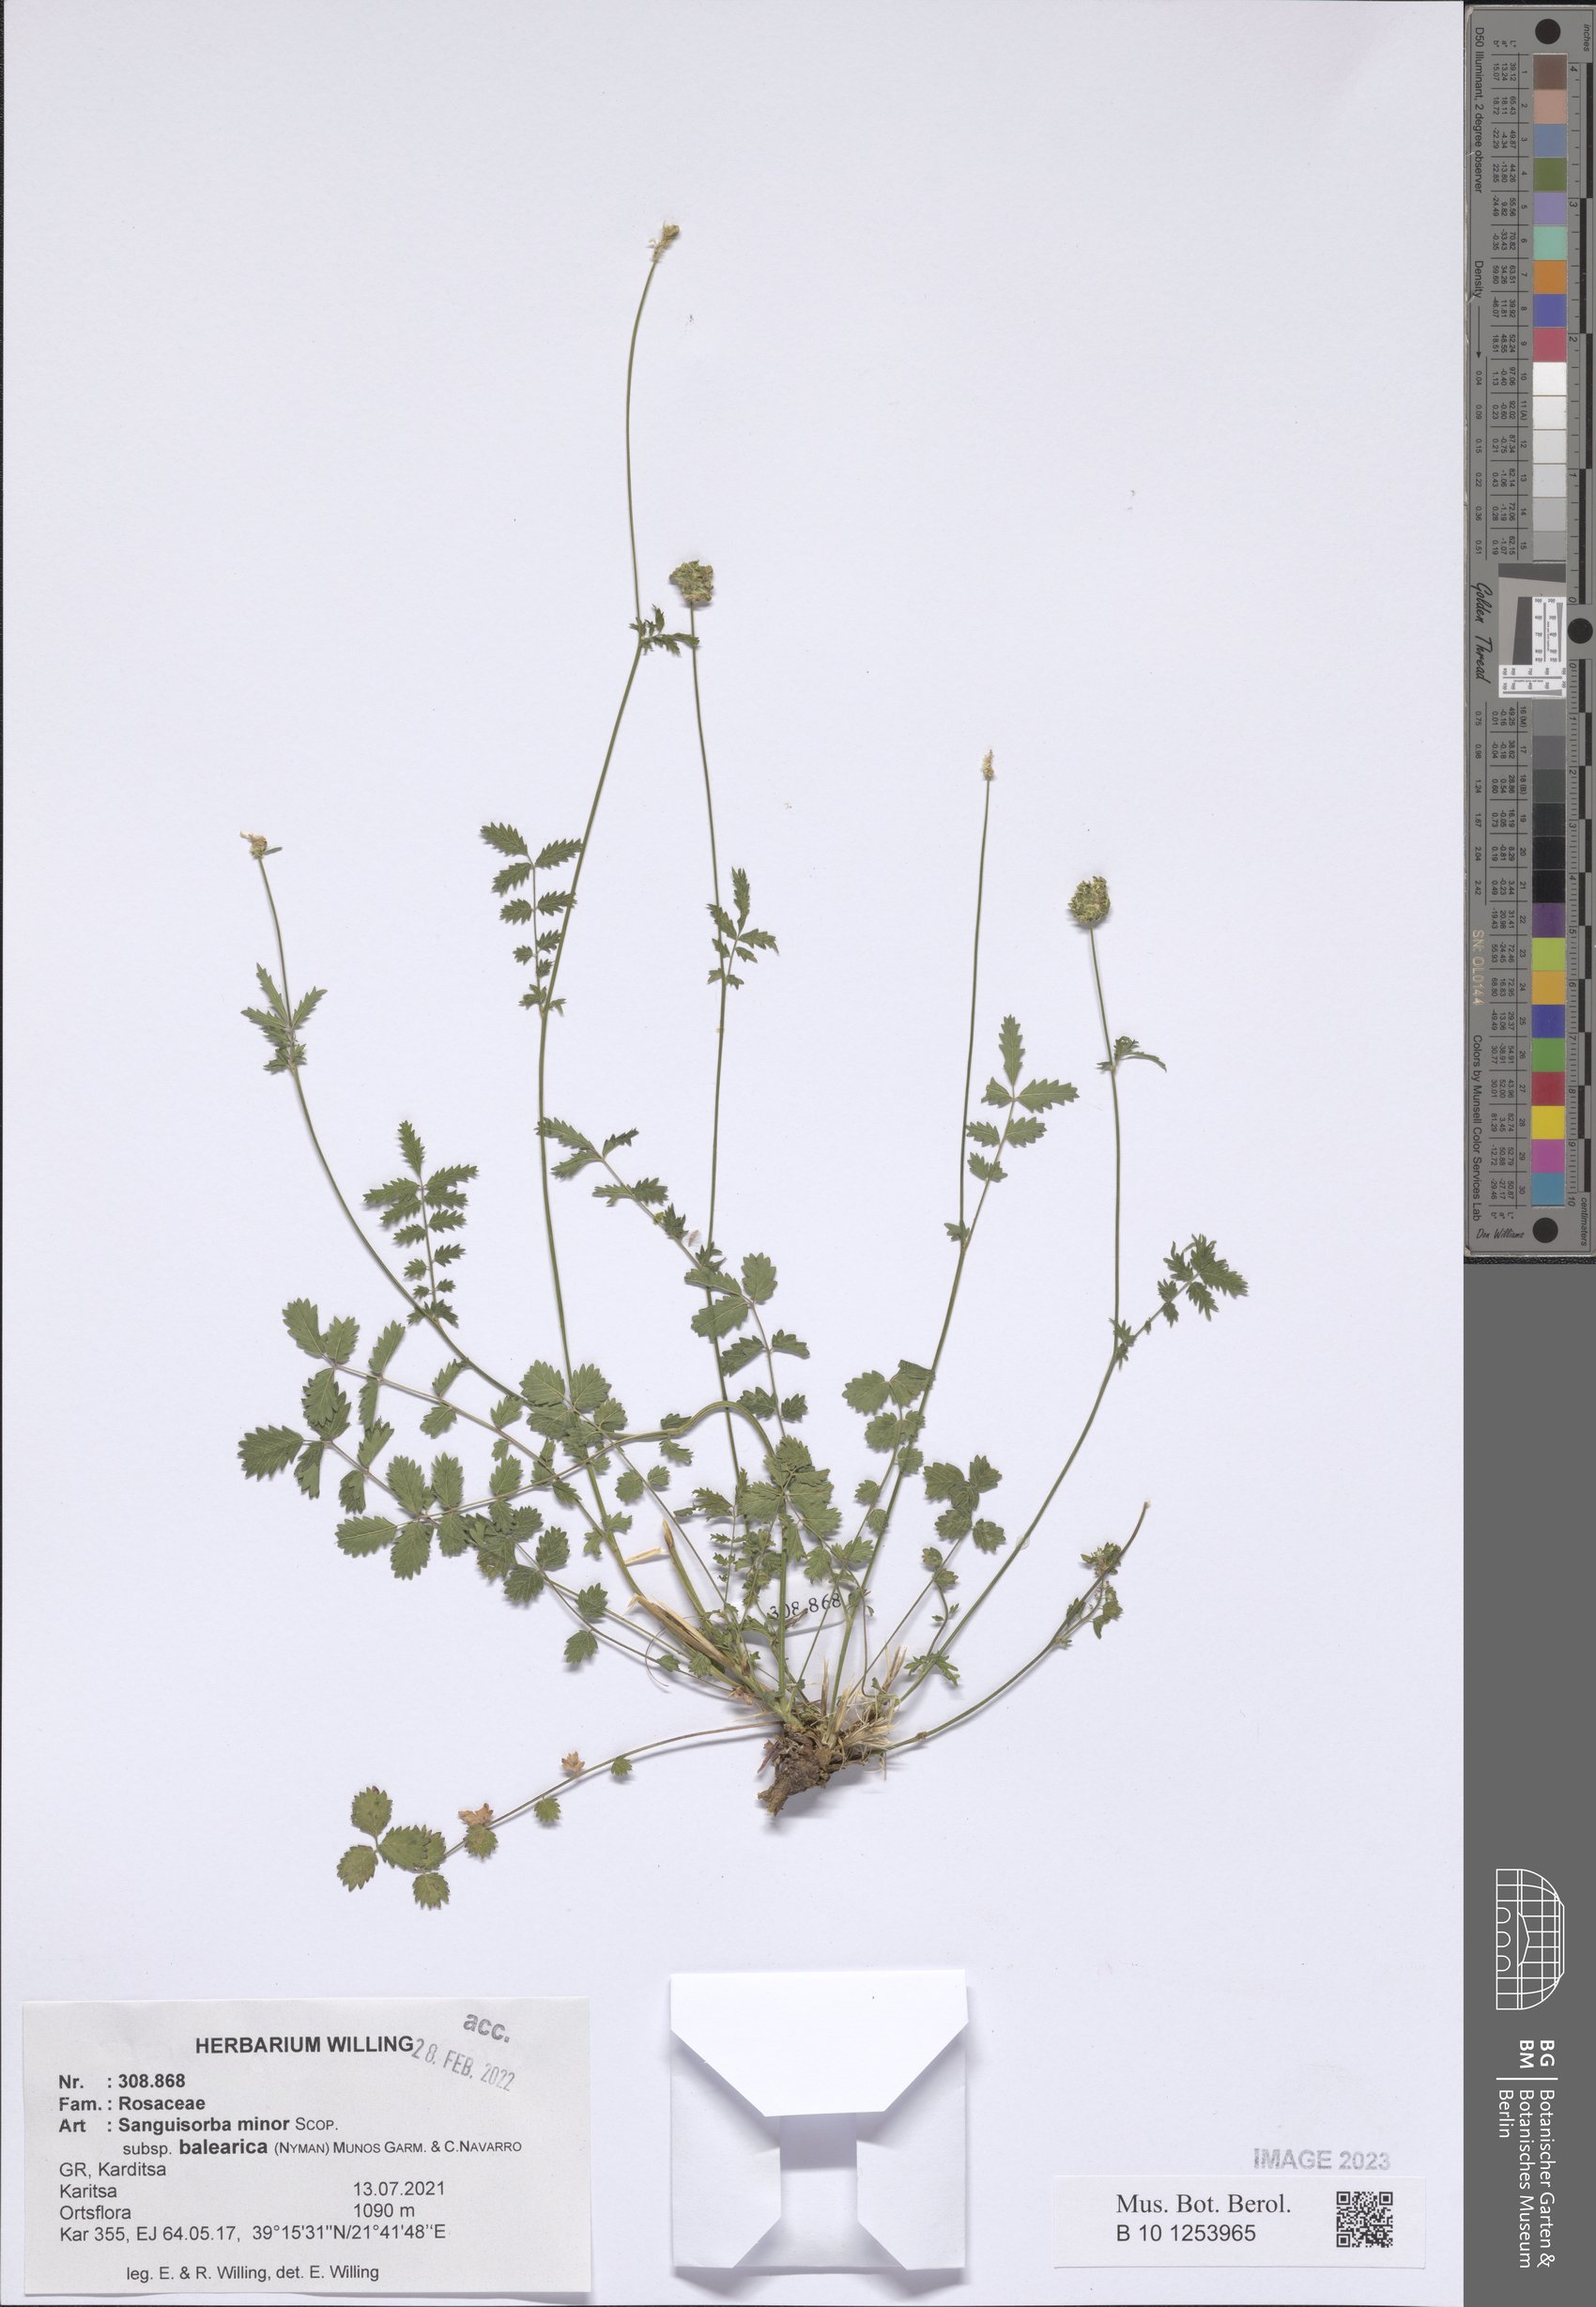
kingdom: Plantae
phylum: Tracheophyta
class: Magnoliopsida
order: Rosales
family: Rosaceae
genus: Poterium
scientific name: Poterium sanguisorba
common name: Salad burnet
